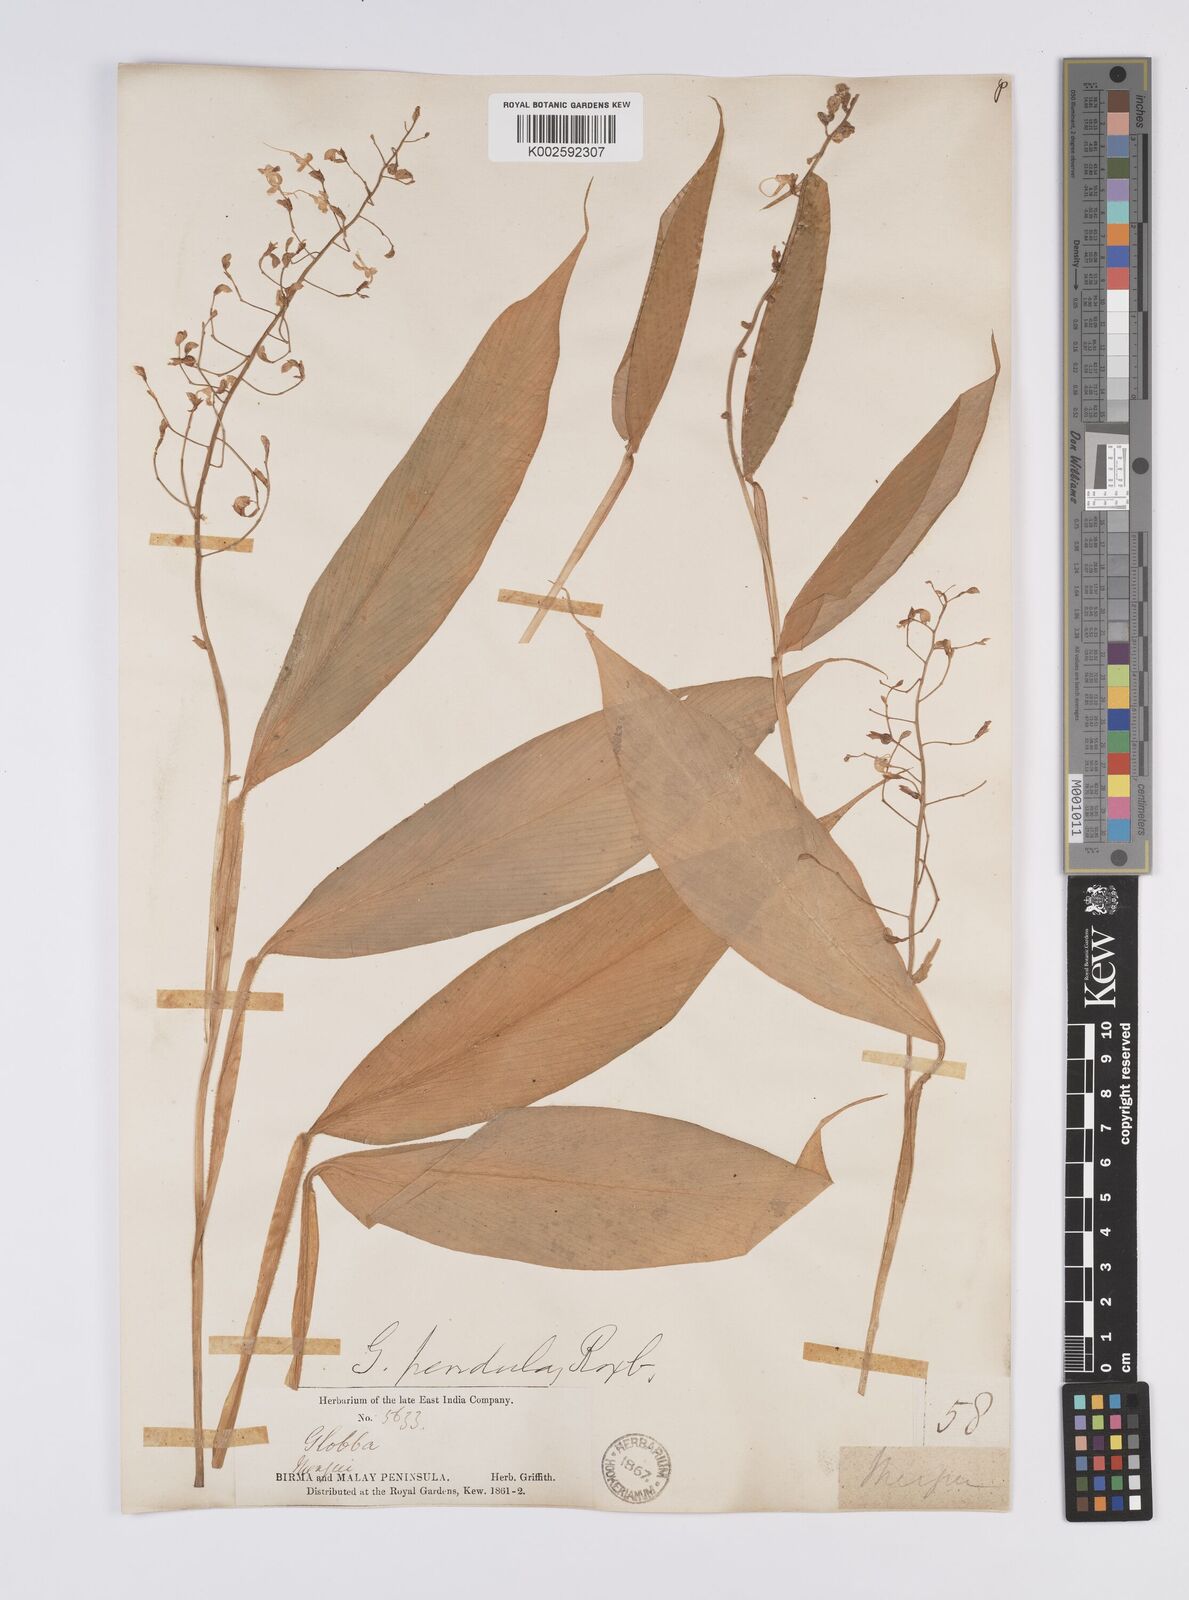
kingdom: Plantae
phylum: Tracheophyta
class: Liliopsida
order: Zingiberales
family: Zingiberaceae
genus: Globba
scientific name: Globba pendula
